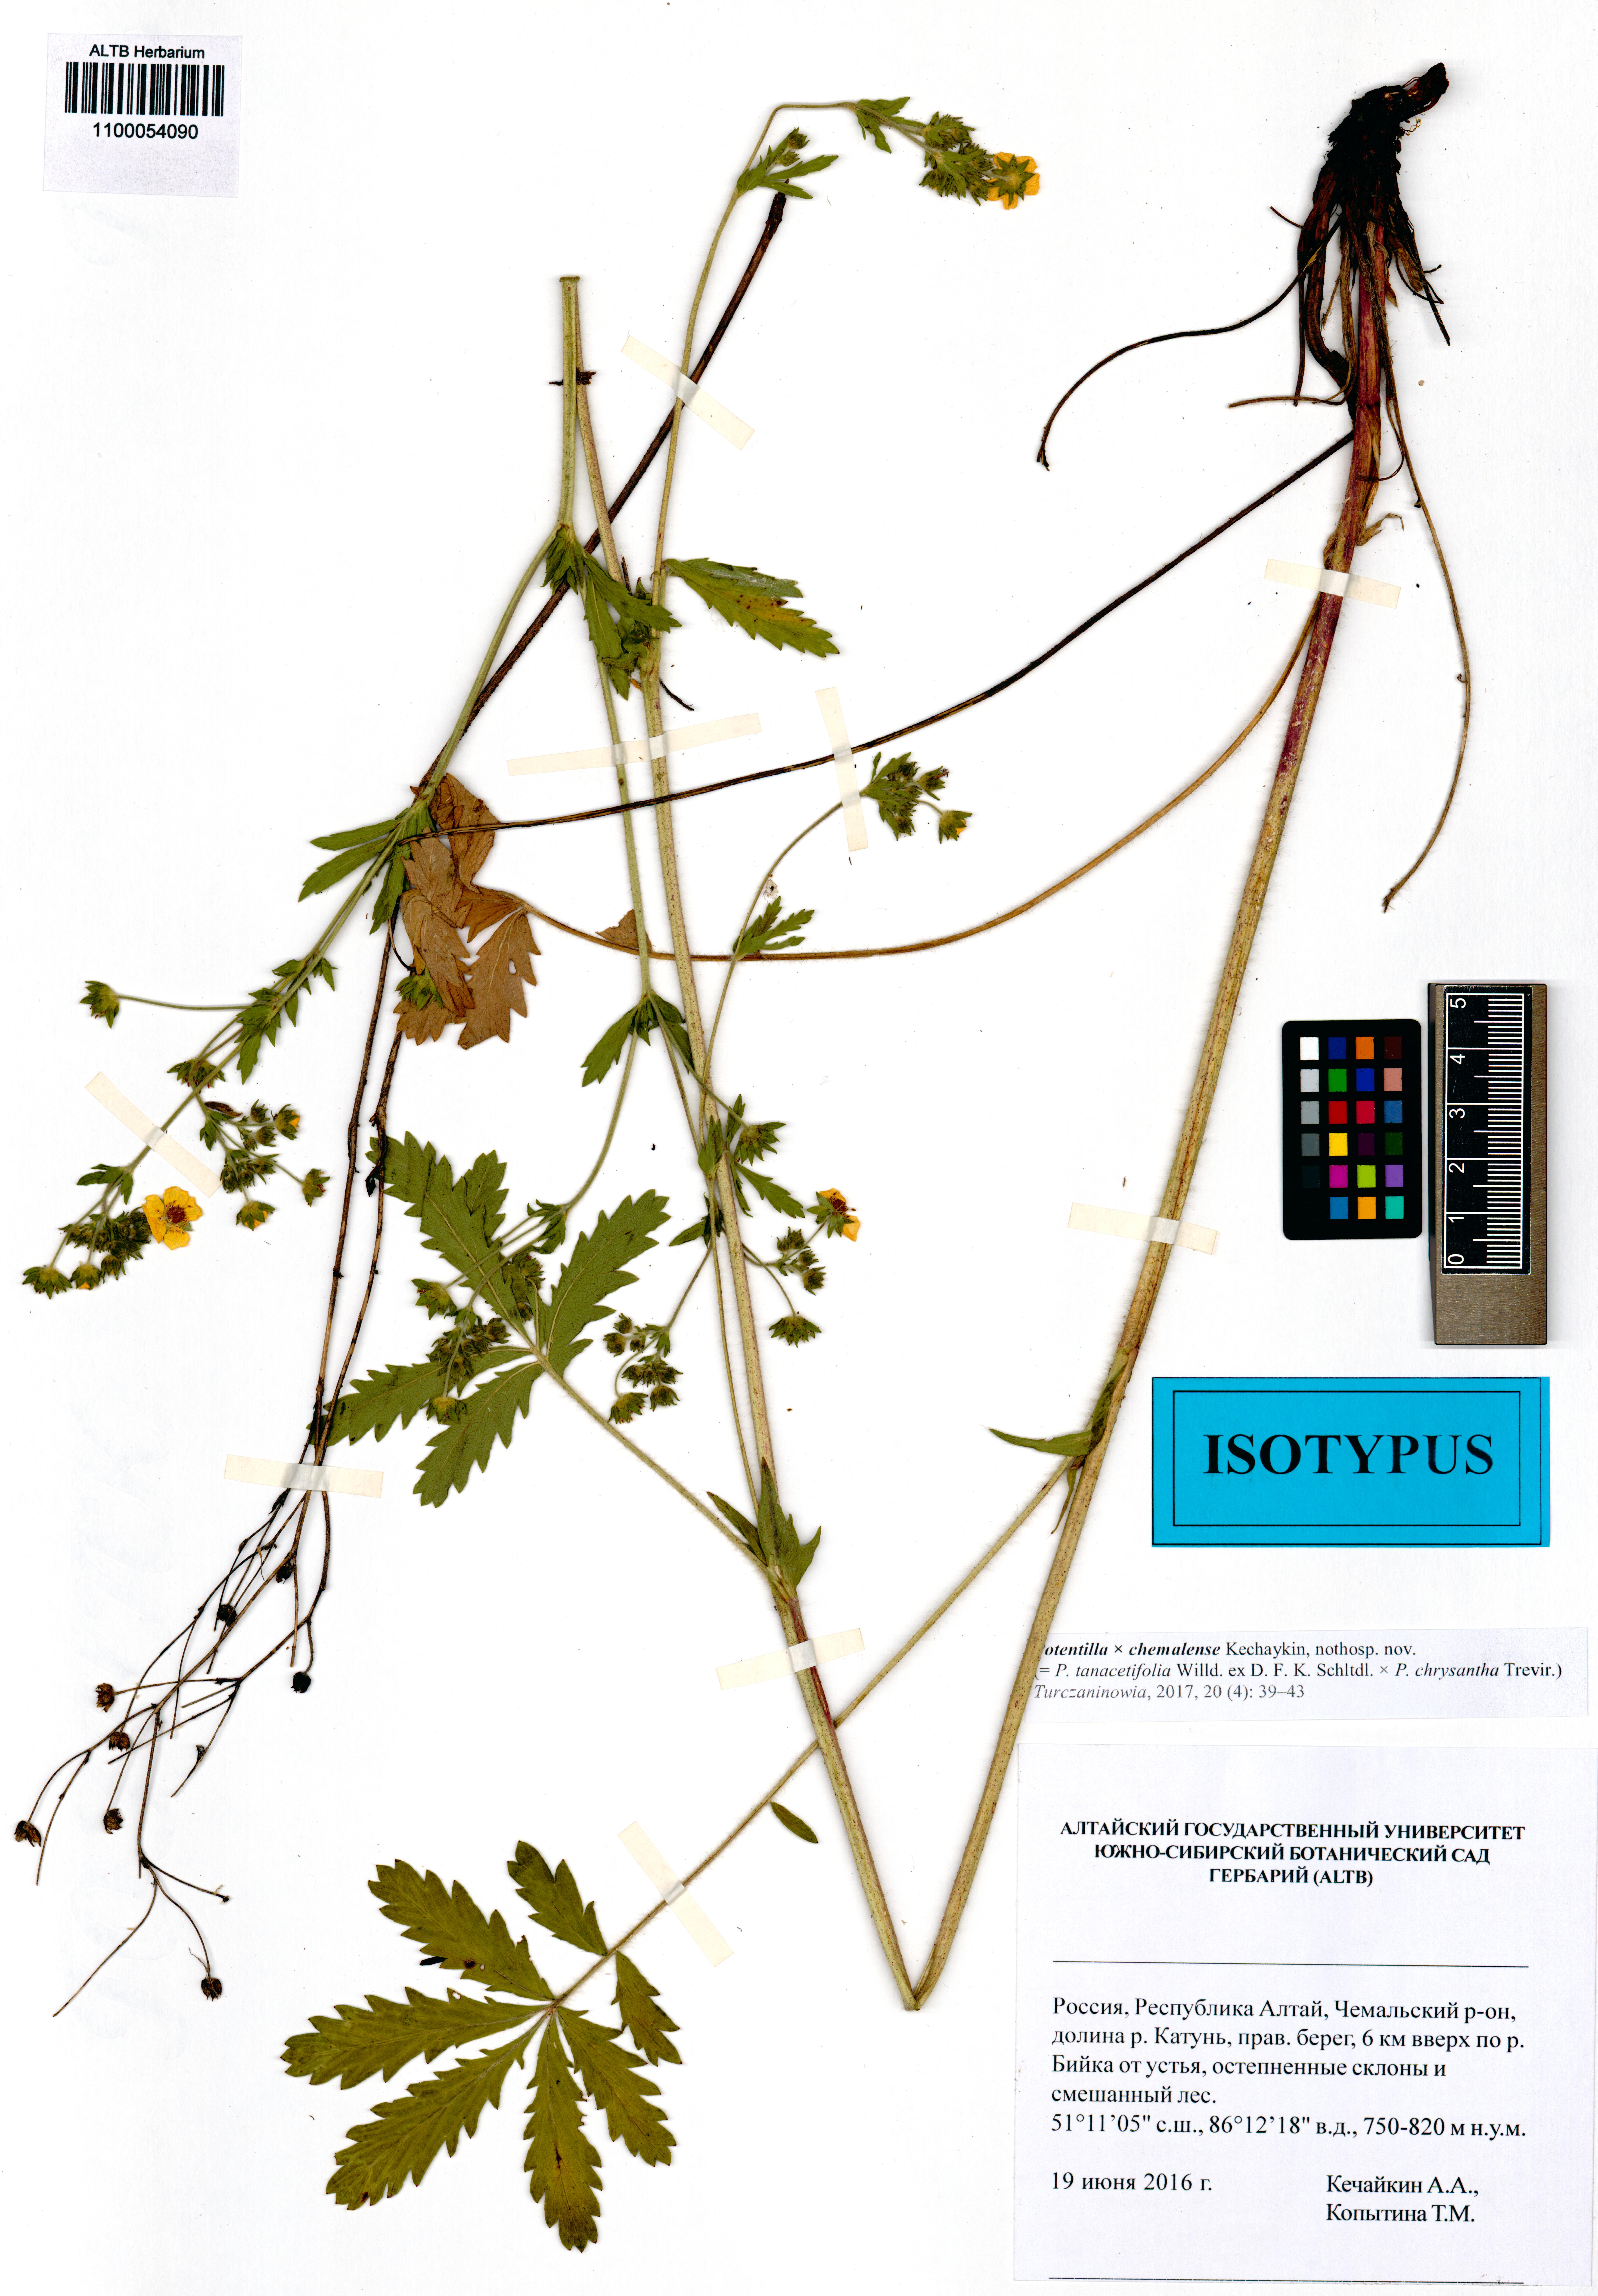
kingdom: Plantae
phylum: Tracheophyta
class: Magnoliopsida
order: Rosales
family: Rosaceae
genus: Potentilla
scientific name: Potentilla chemalensis
